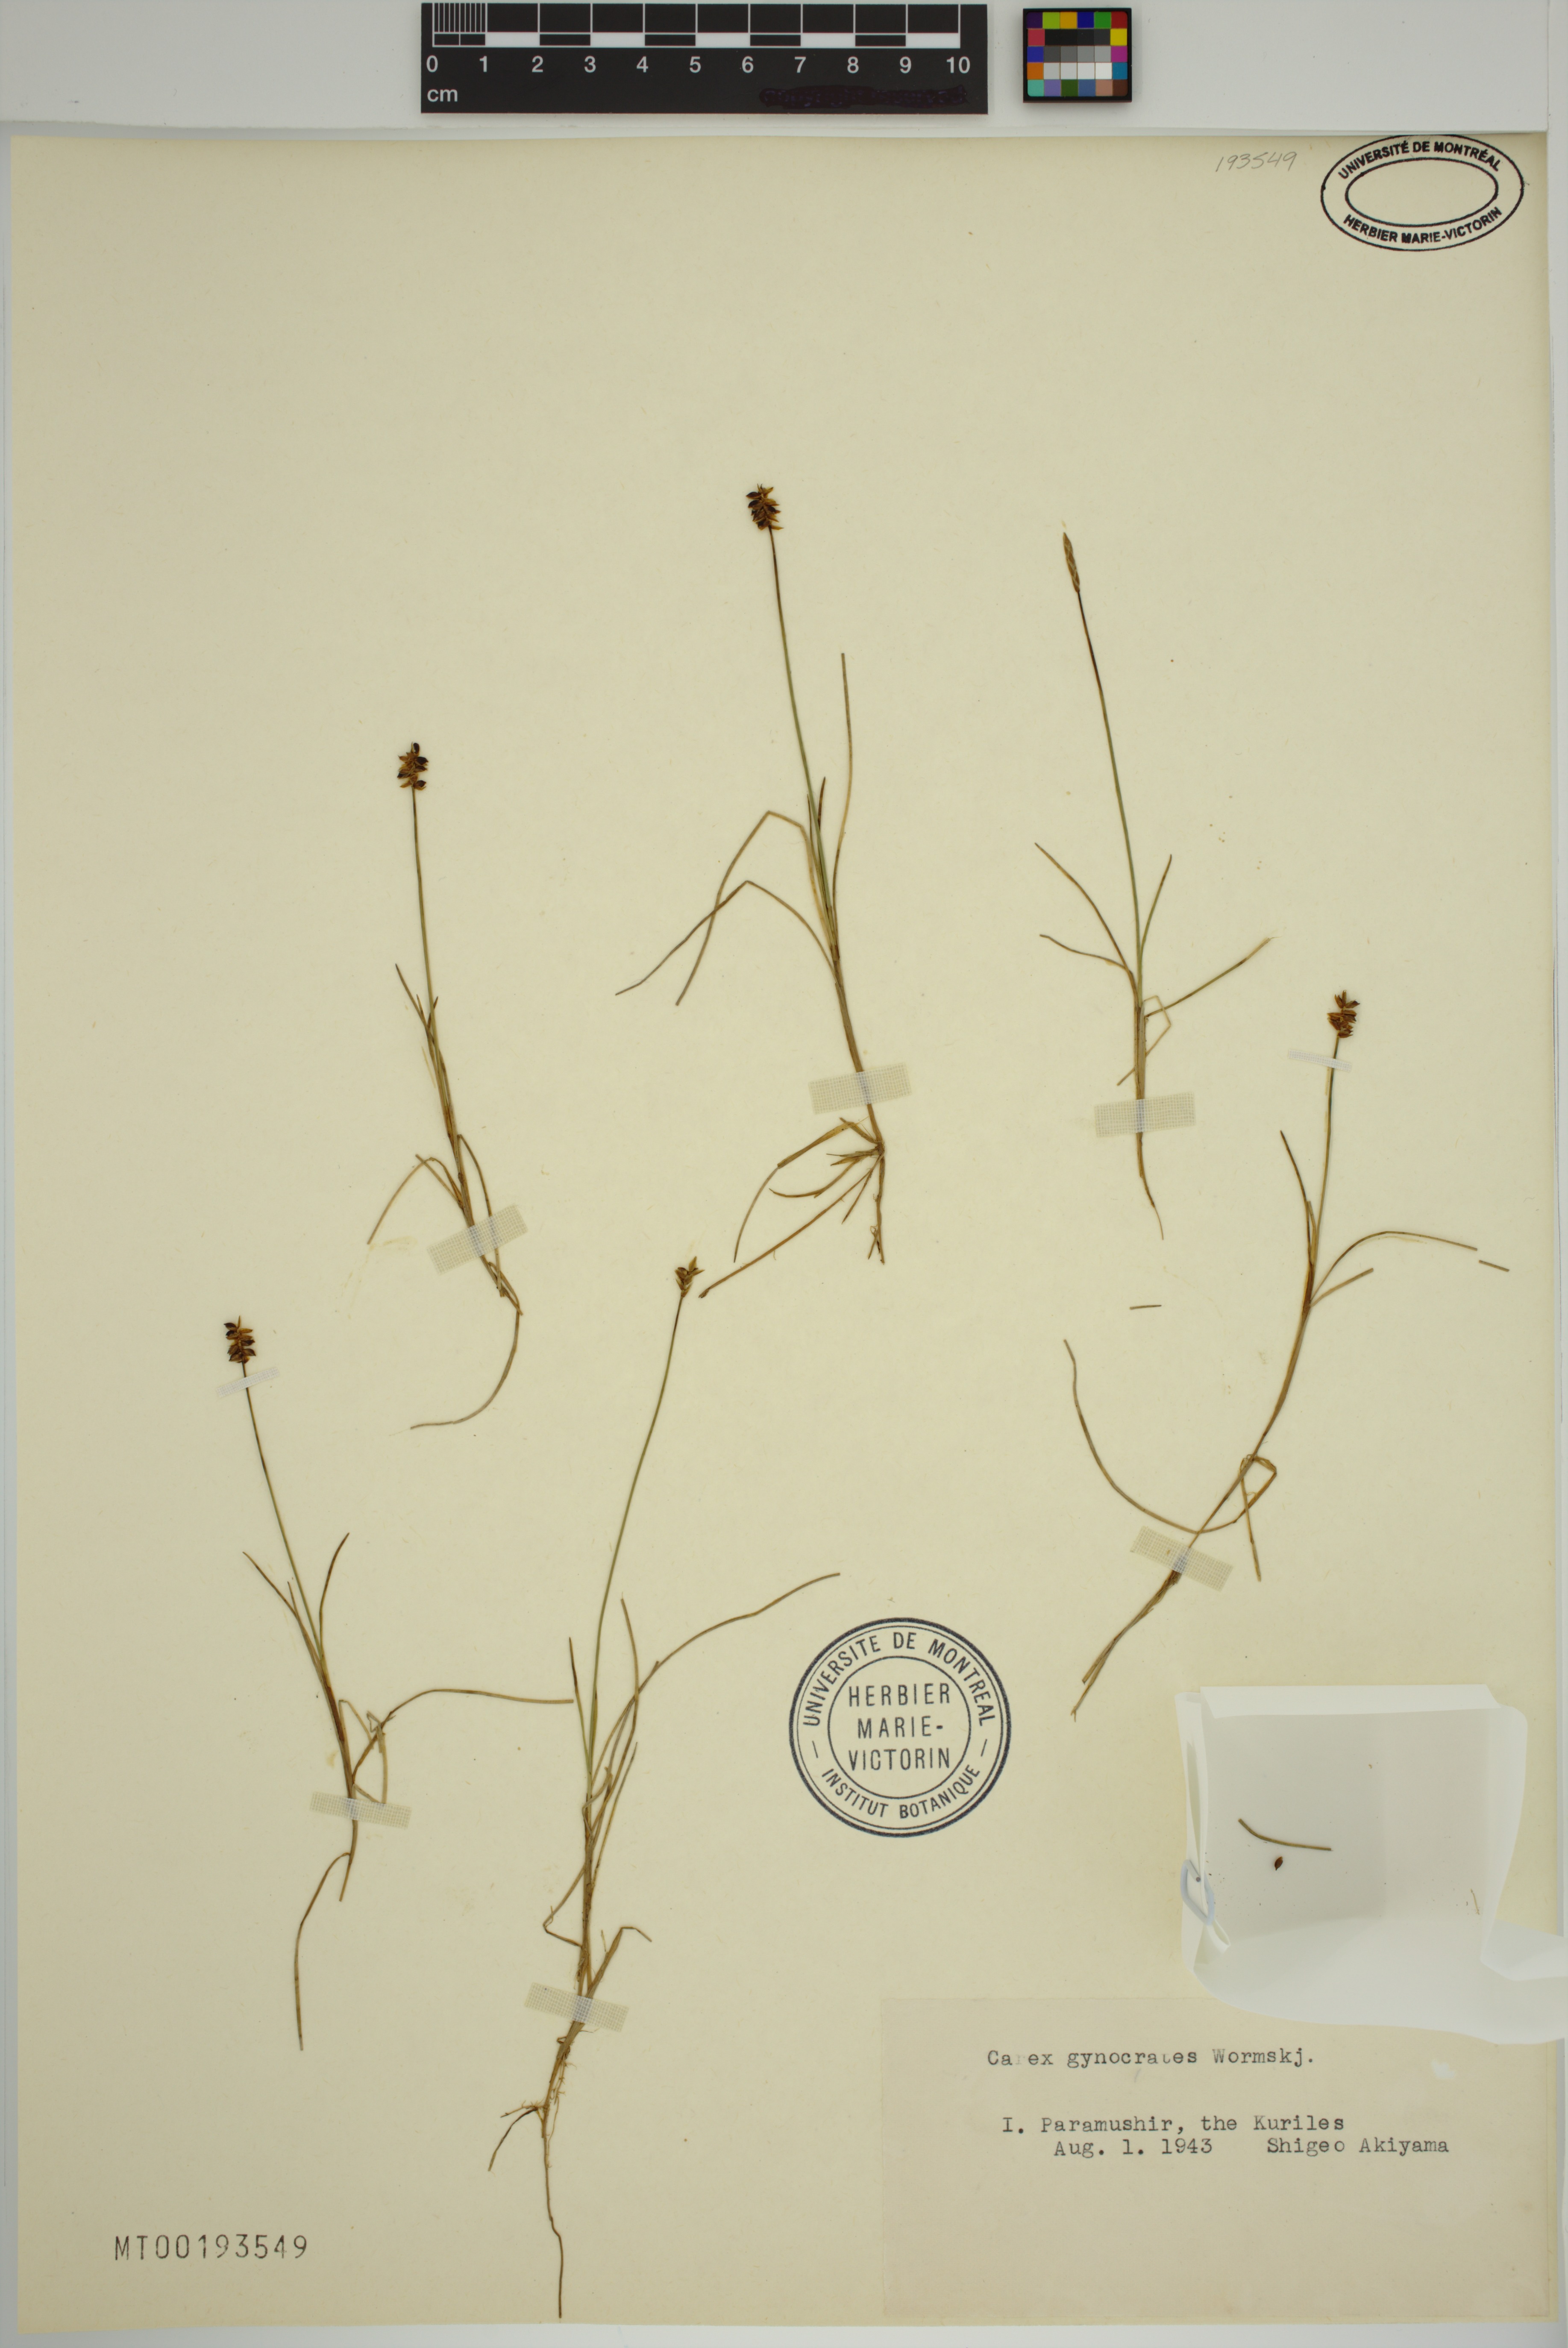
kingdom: Plantae
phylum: Tracheophyta
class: Liliopsida
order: Poales
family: Cyperaceae
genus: Carex
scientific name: Carex nardina
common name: Nard sedge
